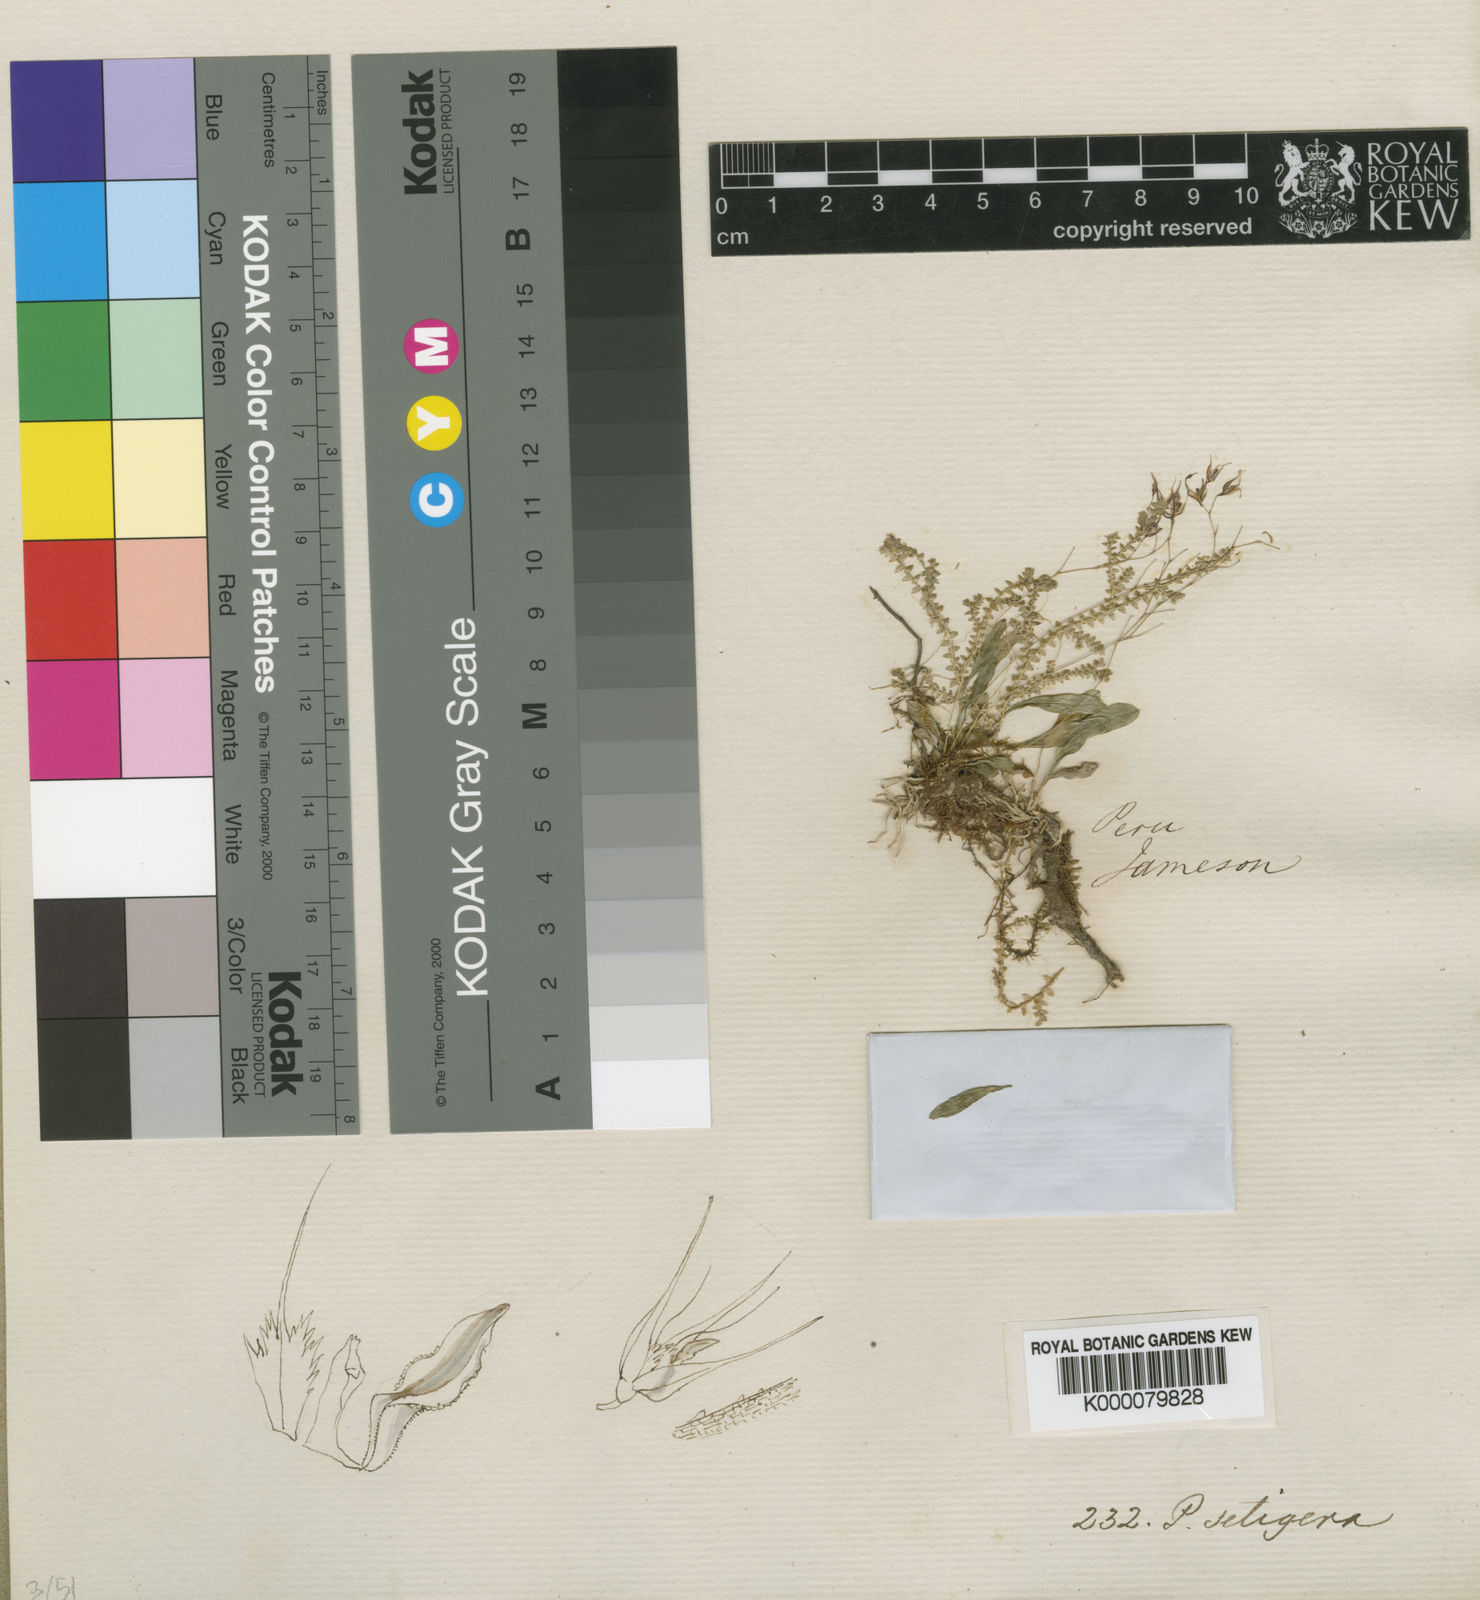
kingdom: Plantae
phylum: Tracheophyta
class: Liliopsida
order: Asparagales
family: Orchidaceae
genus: Muscarella
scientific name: Muscarella zephyrina
